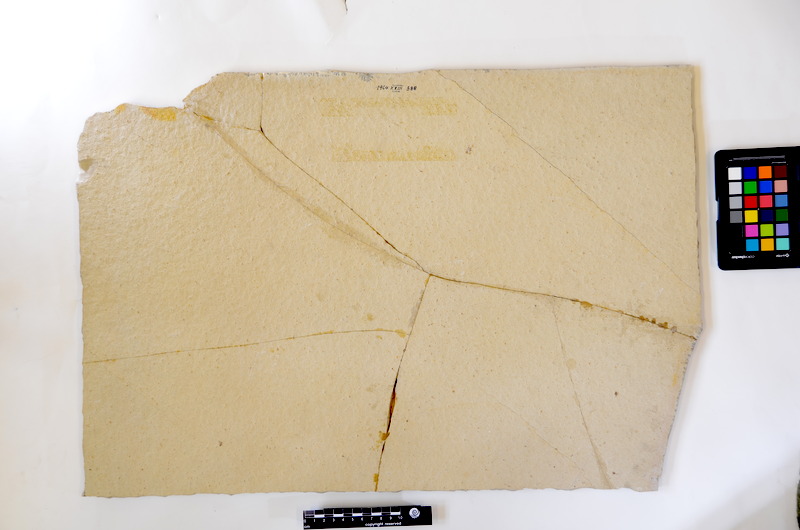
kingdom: Animalia
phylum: Chordata
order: Salmoniformes
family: Orthogonikleithridae
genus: Leptolepides
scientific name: Leptolepides sprattiformis
